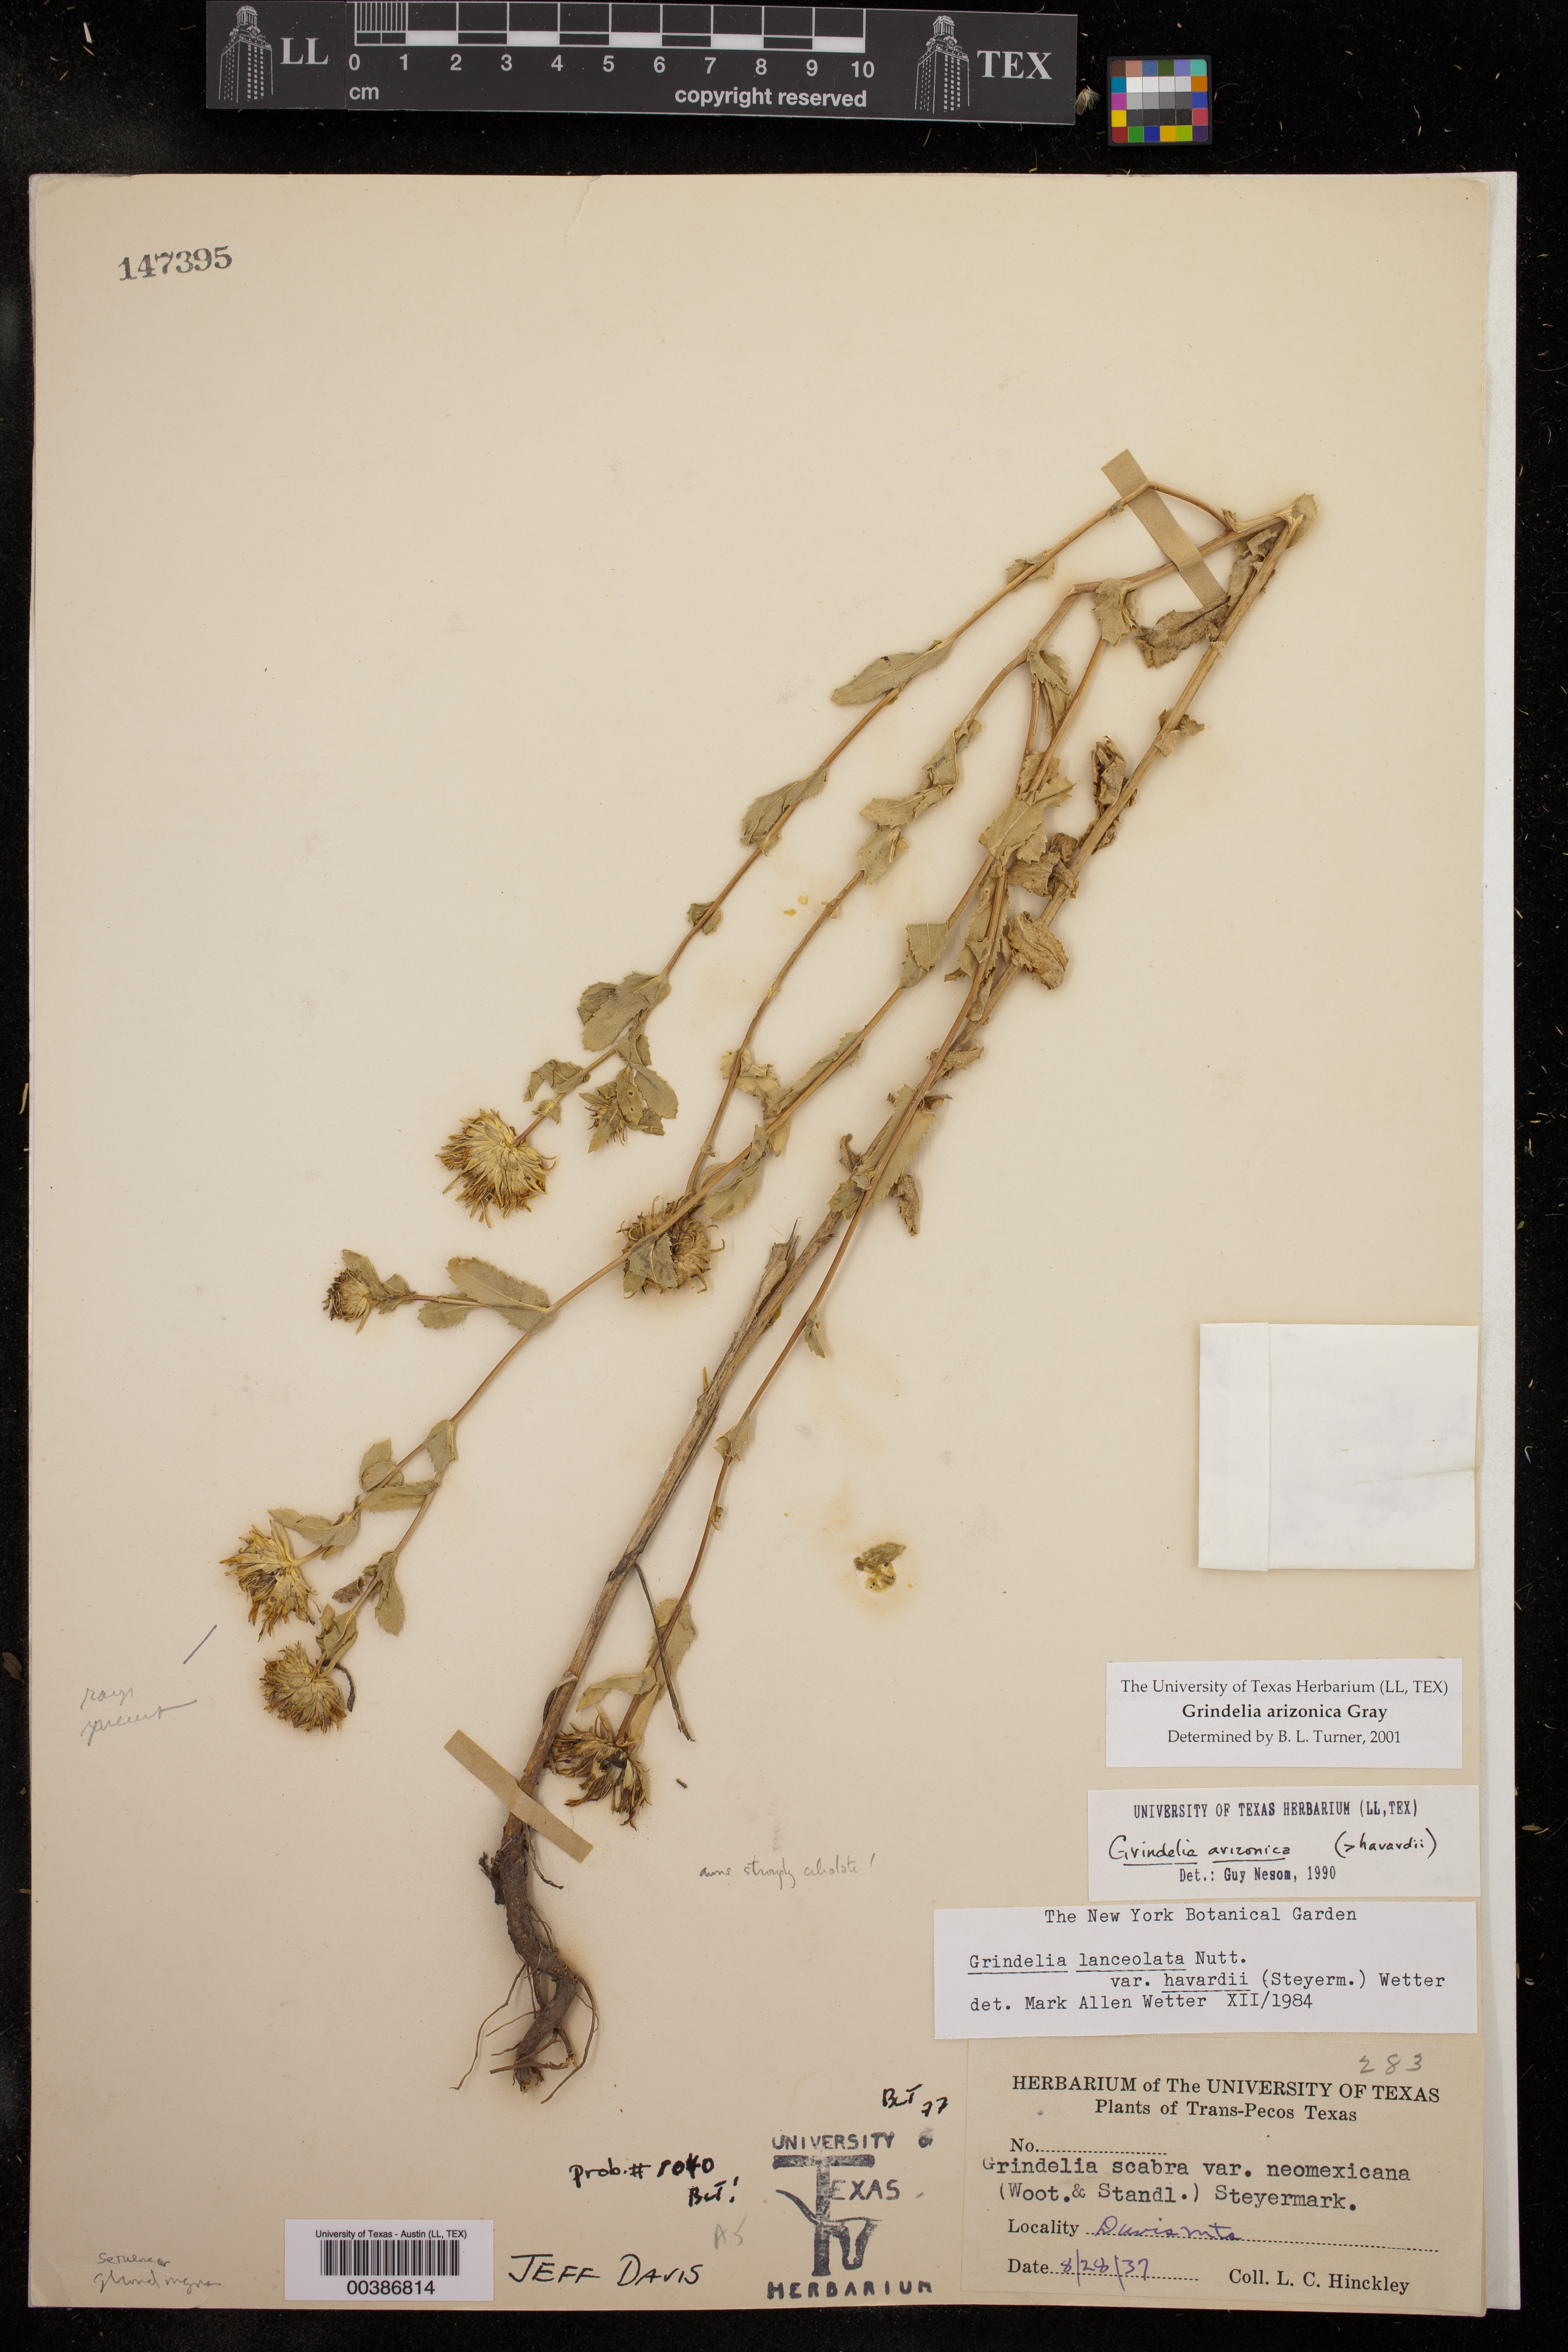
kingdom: Plantae
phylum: Tracheophyta
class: Magnoliopsida
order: Asterales
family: Asteraceae
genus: Grindelia
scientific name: Grindelia arizonica
